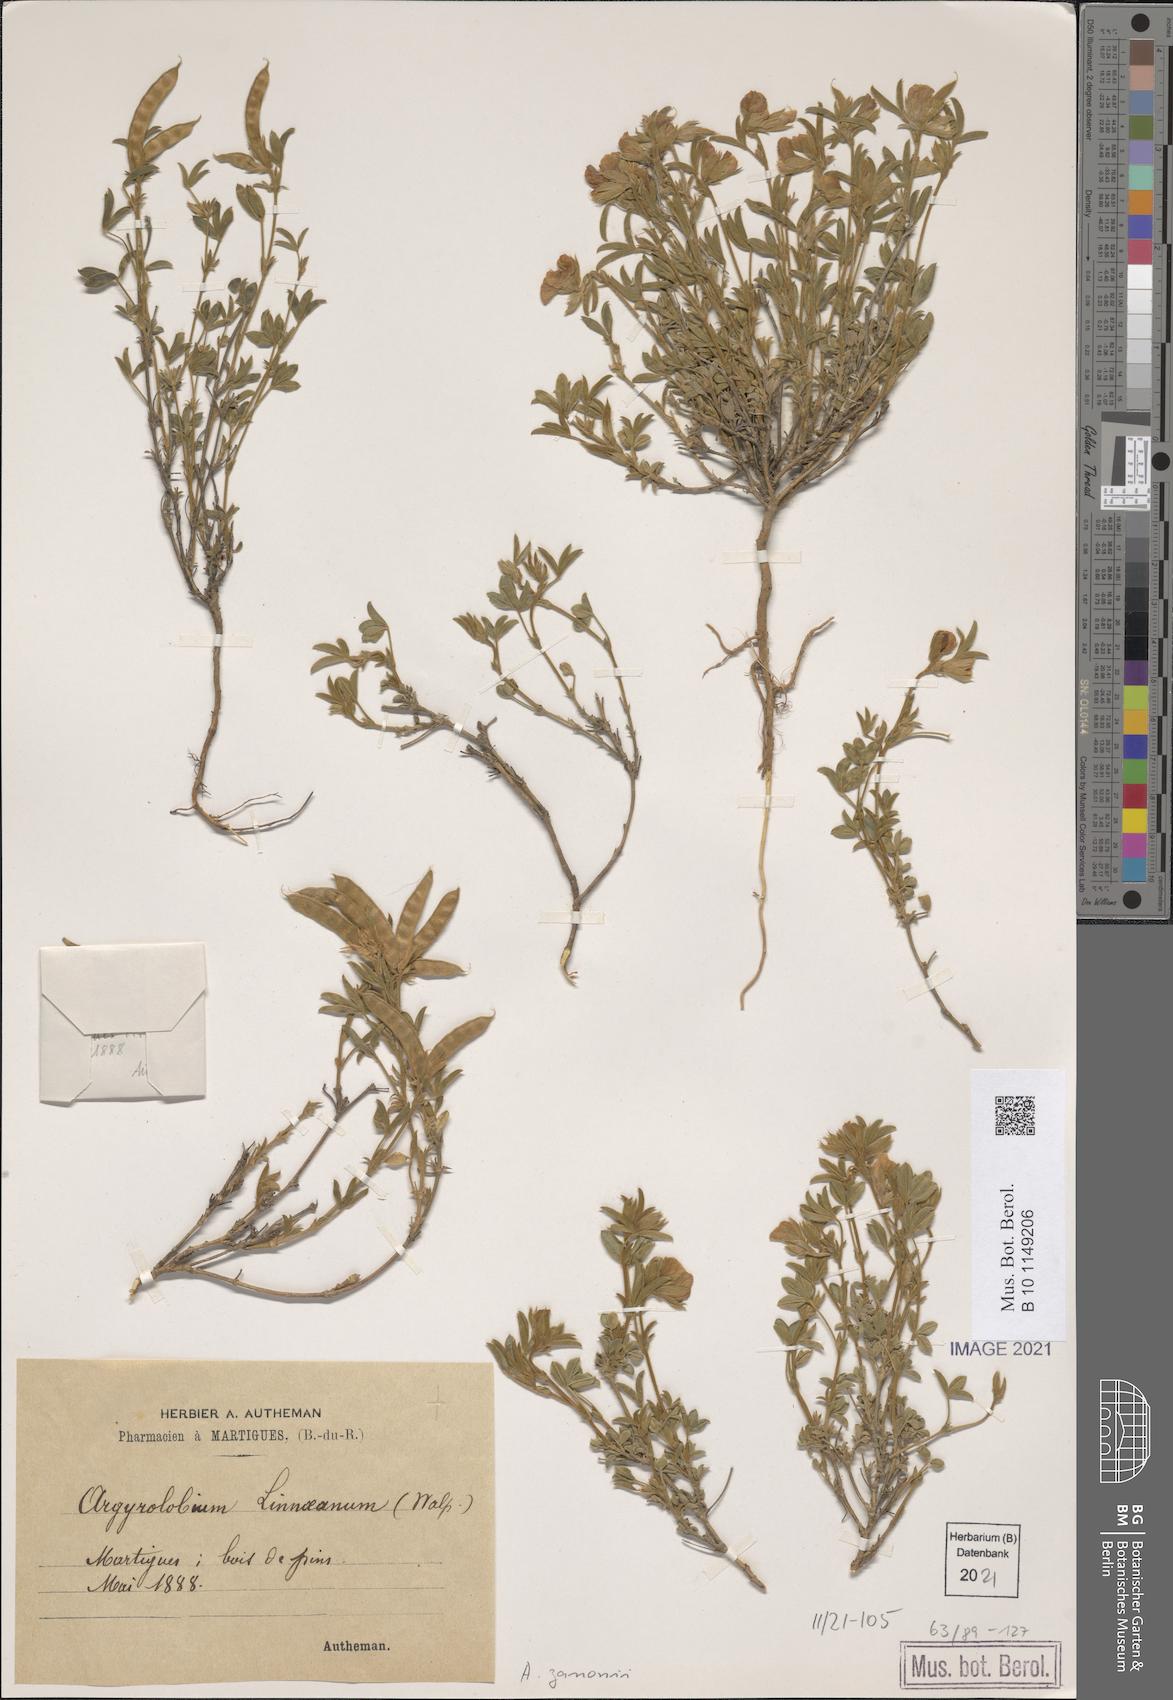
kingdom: Plantae
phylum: Tracheophyta
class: Magnoliopsida
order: Fabales
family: Fabaceae
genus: Argyrolobium
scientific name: Argyrolobium zanonii
